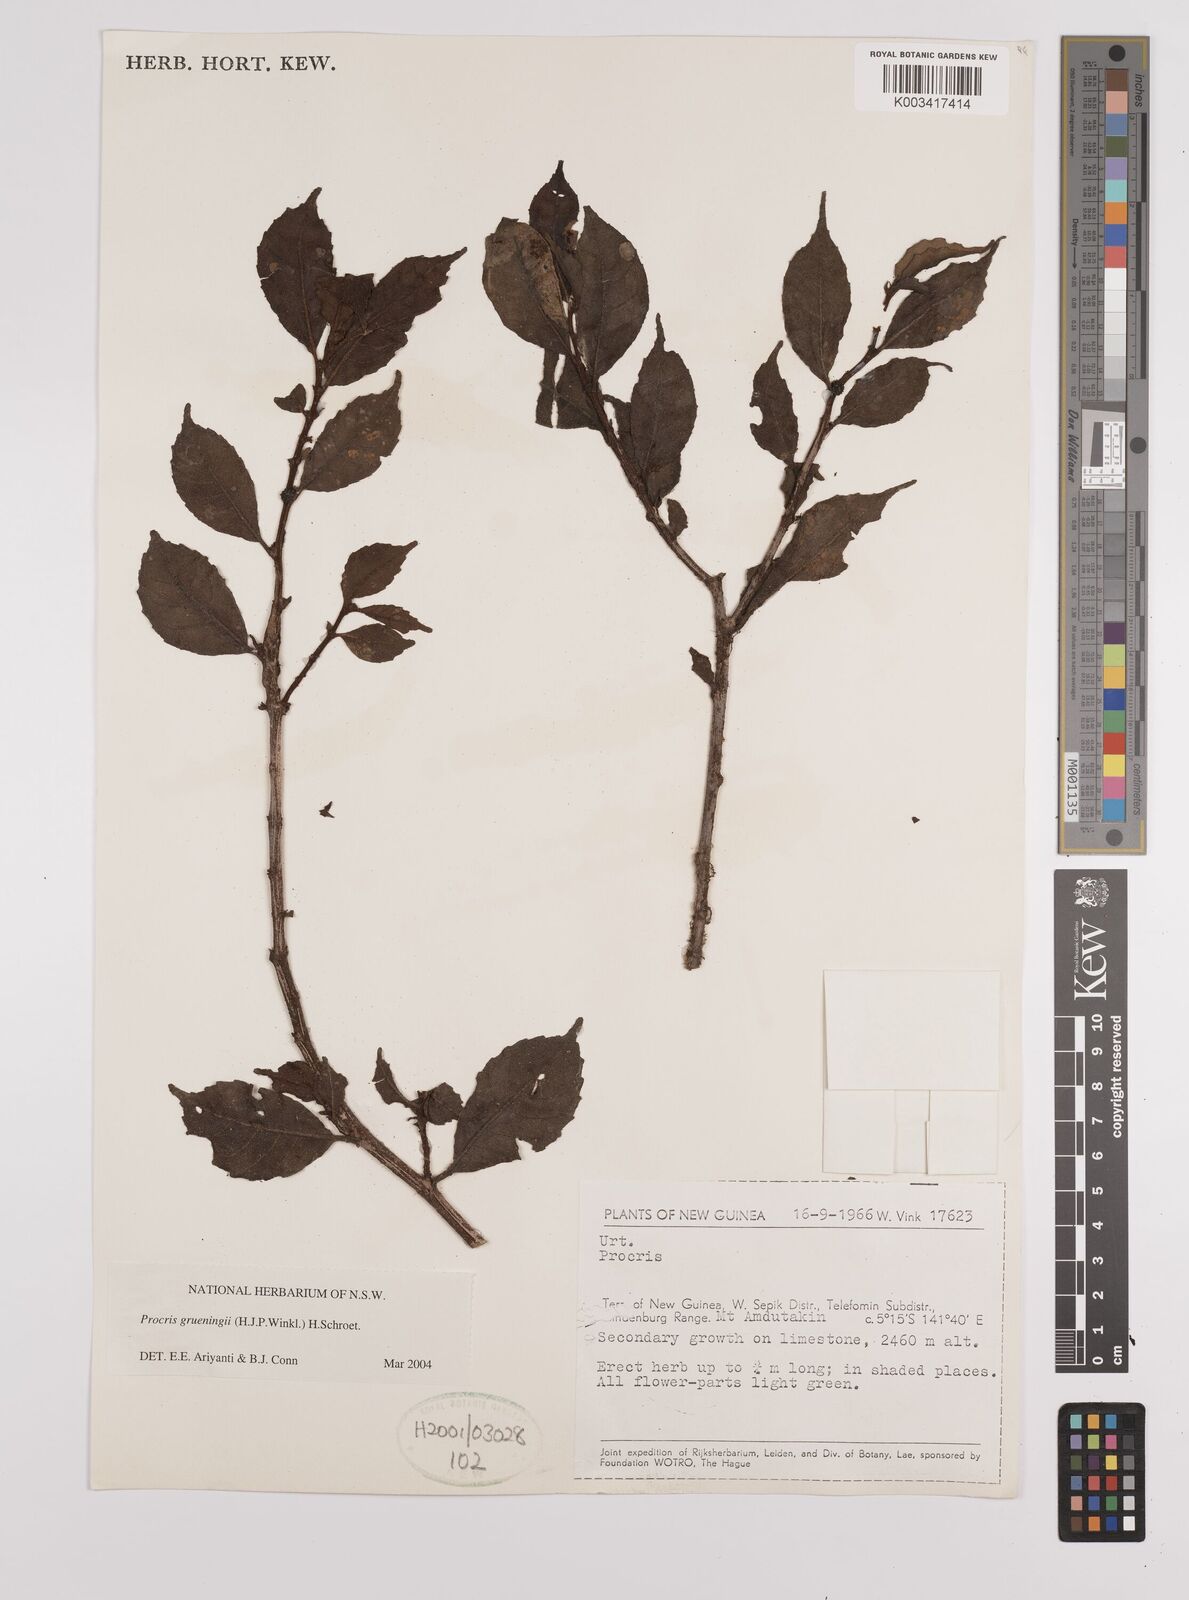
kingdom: Plantae
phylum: Tracheophyta
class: Magnoliopsida
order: Rosales
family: Urticaceae
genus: Procris
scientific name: Procris grueningii
